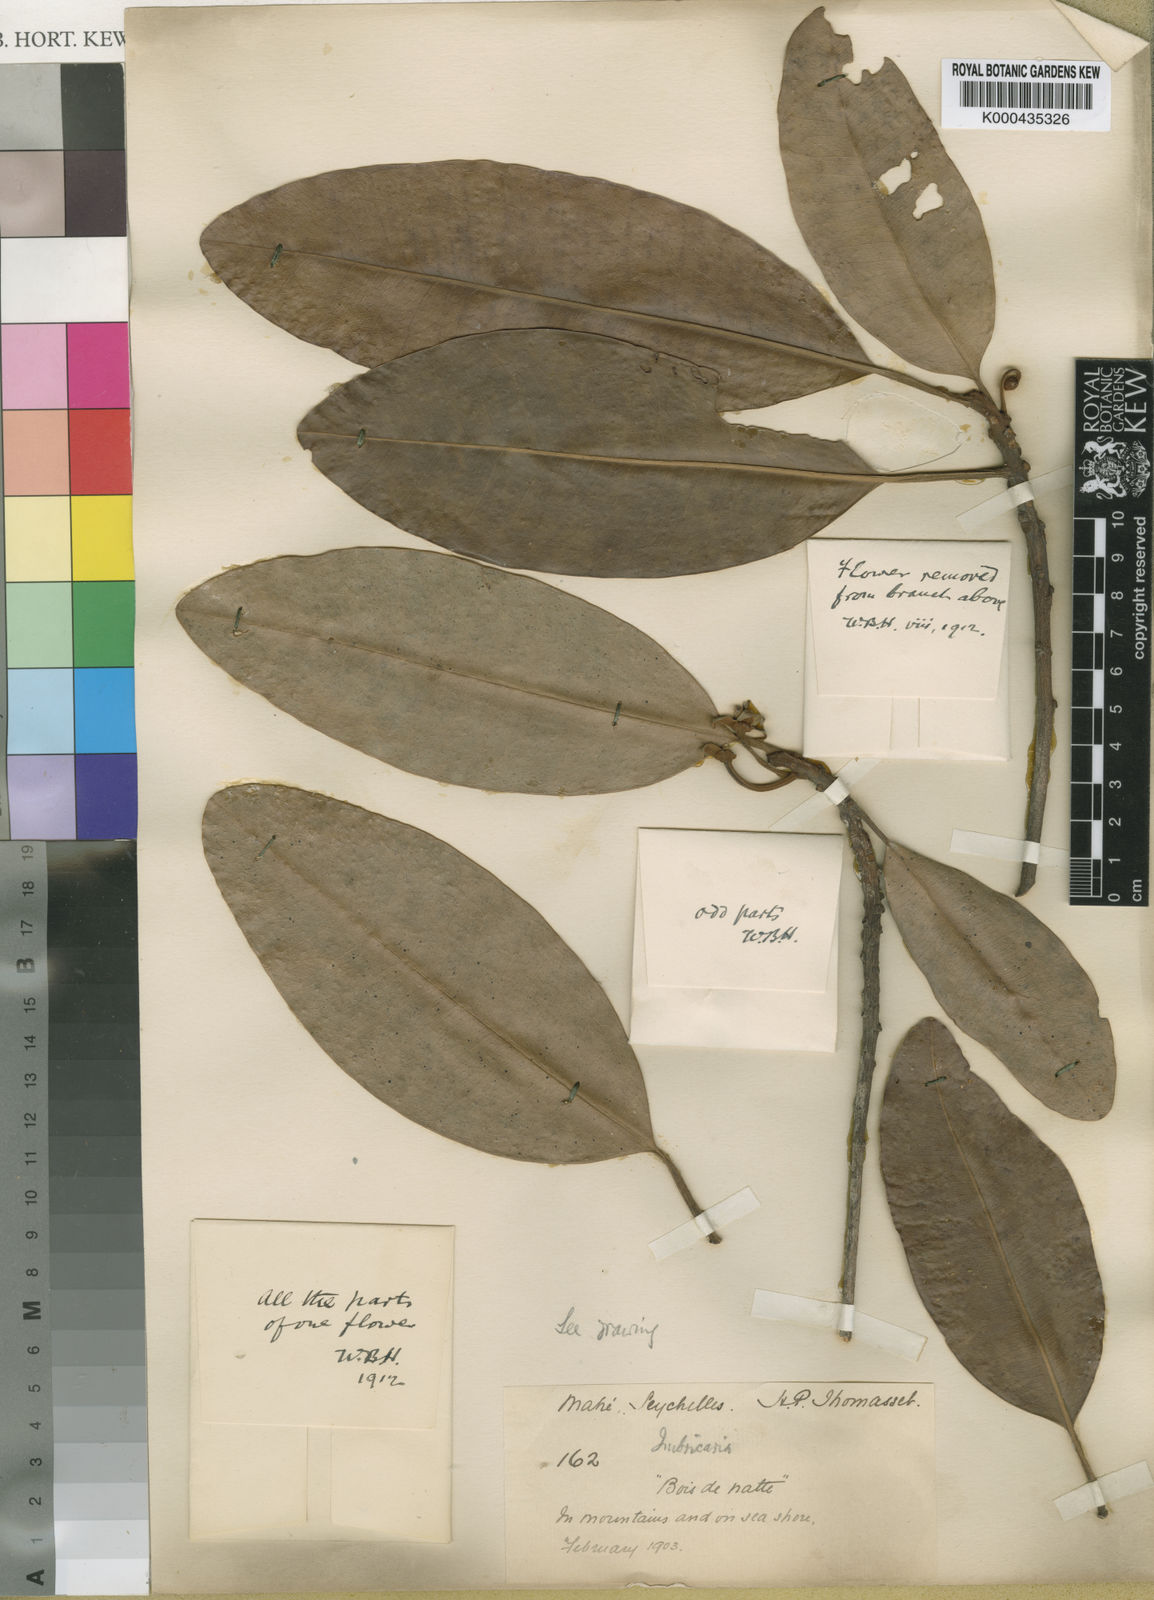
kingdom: Plantae
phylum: Tracheophyta
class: Magnoliopsida
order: Ericales
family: Sapotaceae
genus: Mimusops
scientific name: Mimusops sechellarum
